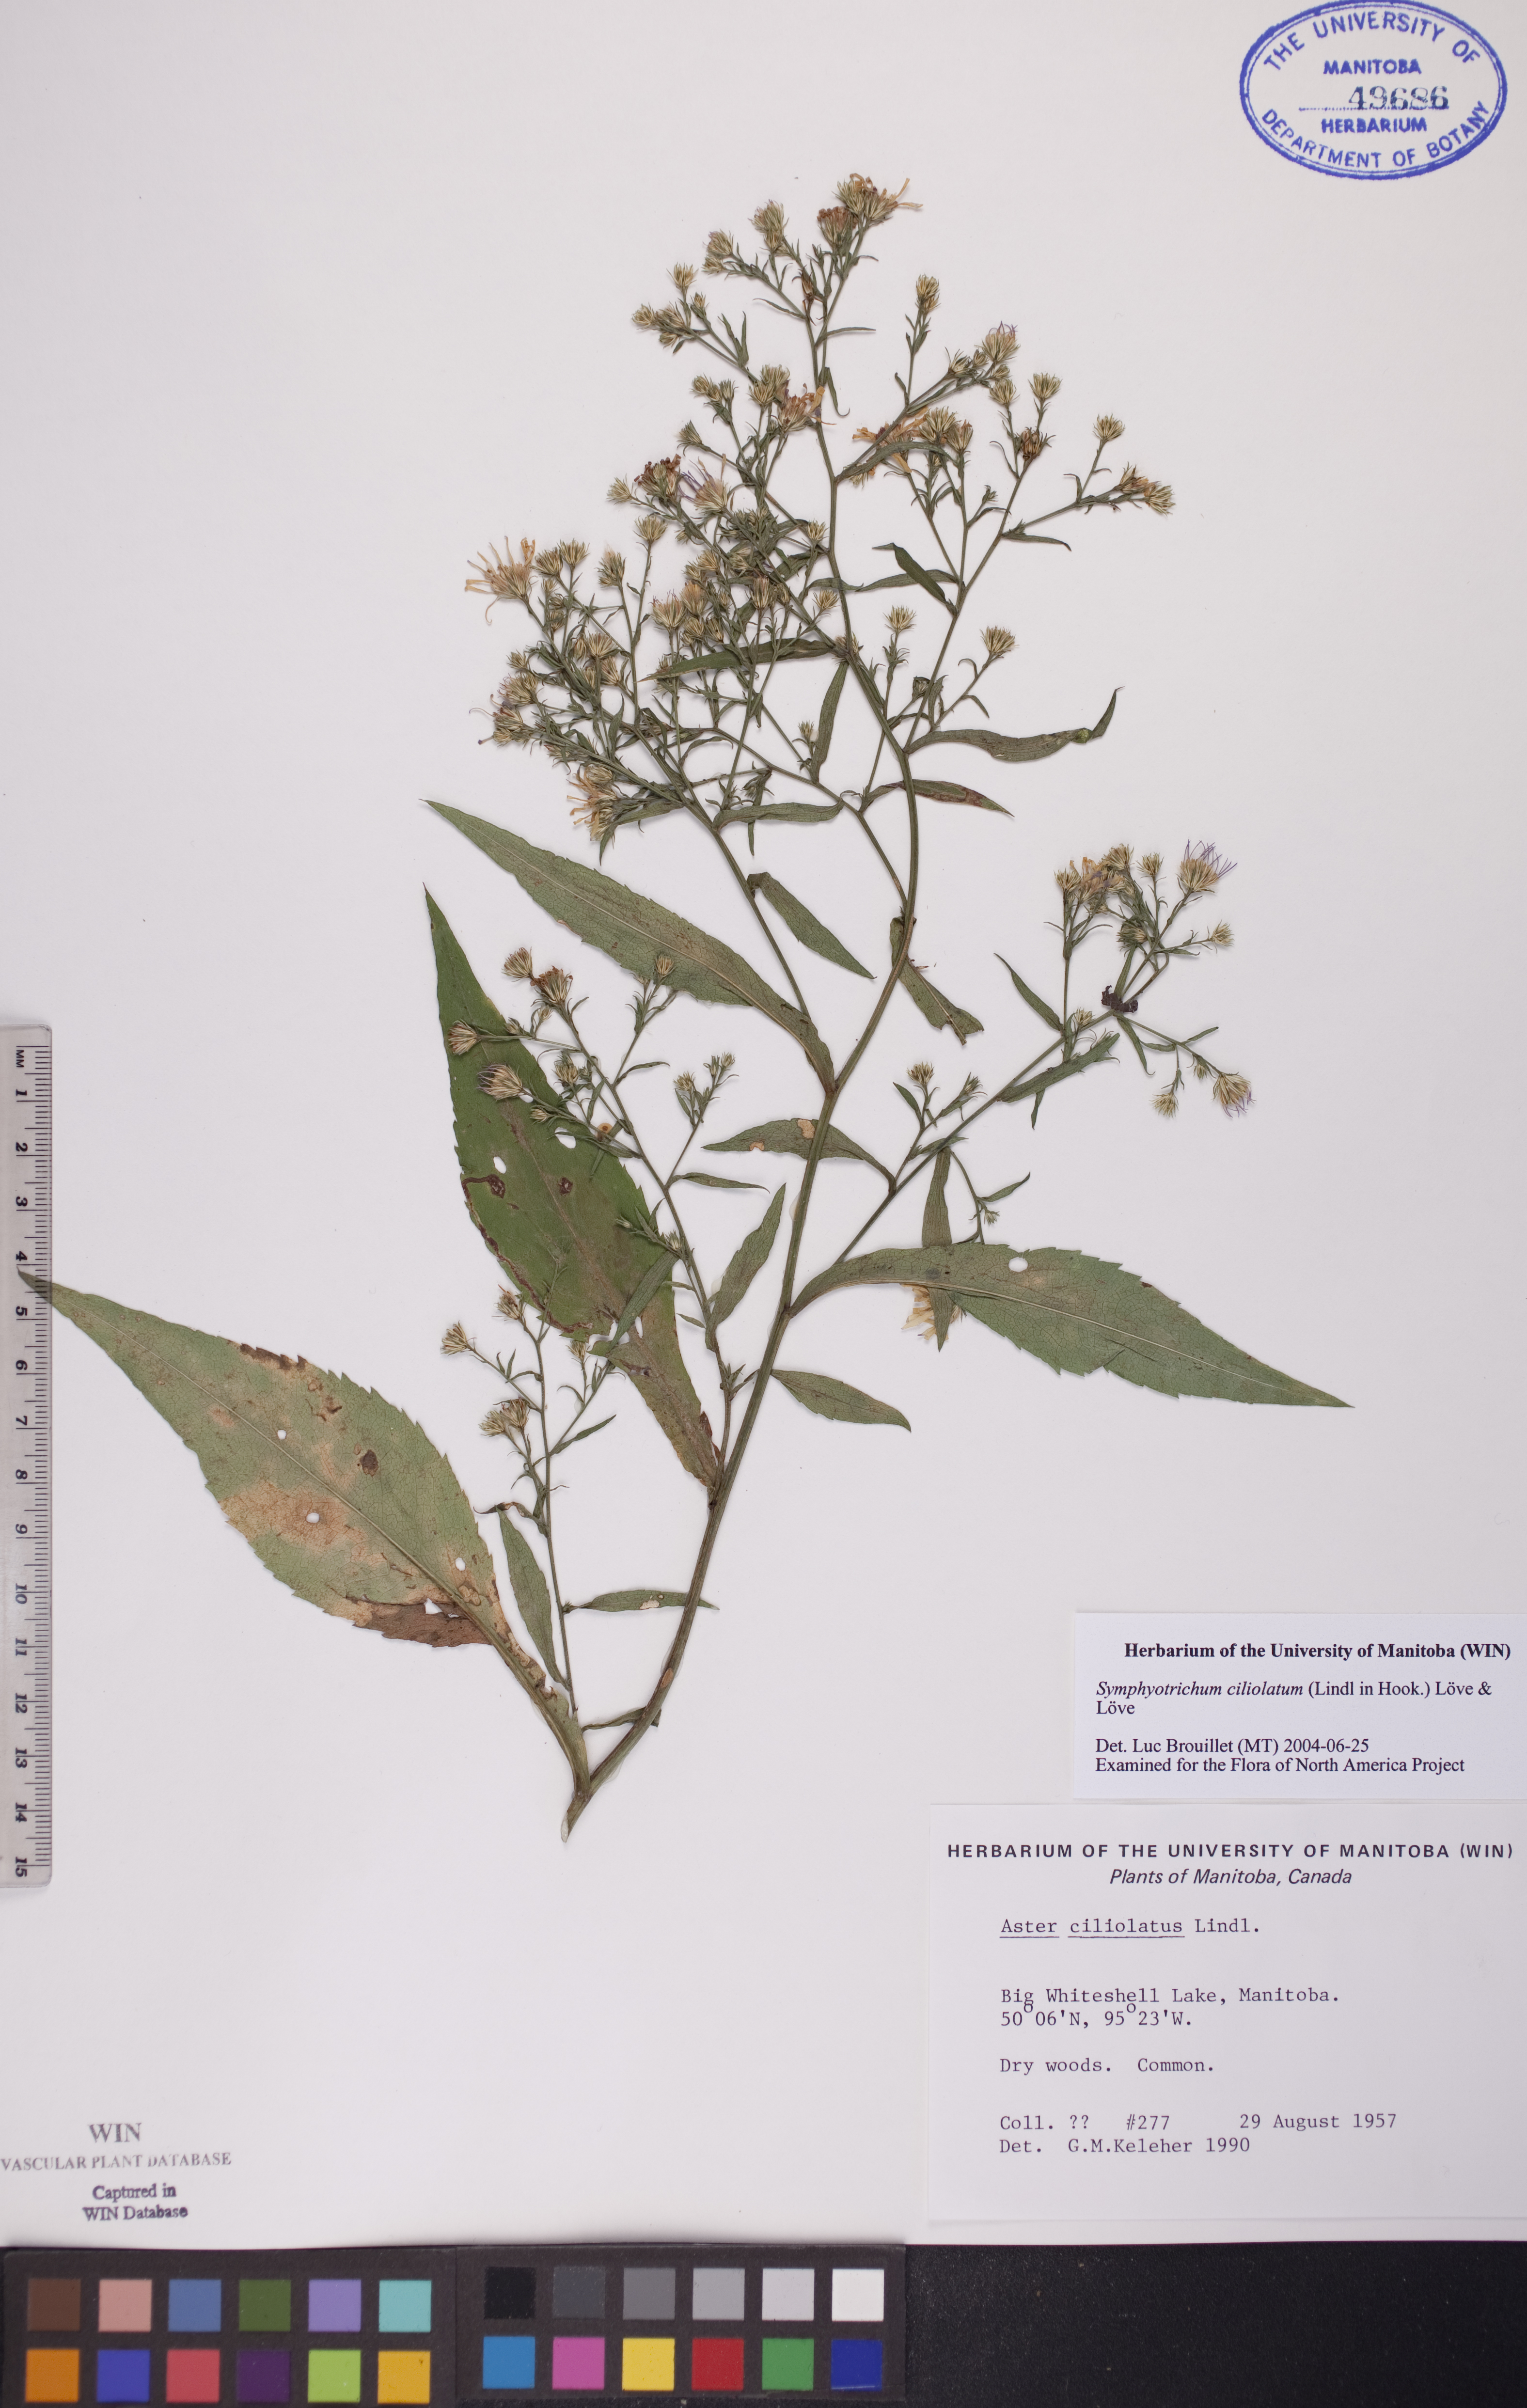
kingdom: Plantae
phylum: Tracheophyta
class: Magnoliopsida
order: Asterales
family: Asteraceae
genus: Symphyotrichum
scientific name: Symphyotrichum ciliolatum
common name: Fringed blue aster
